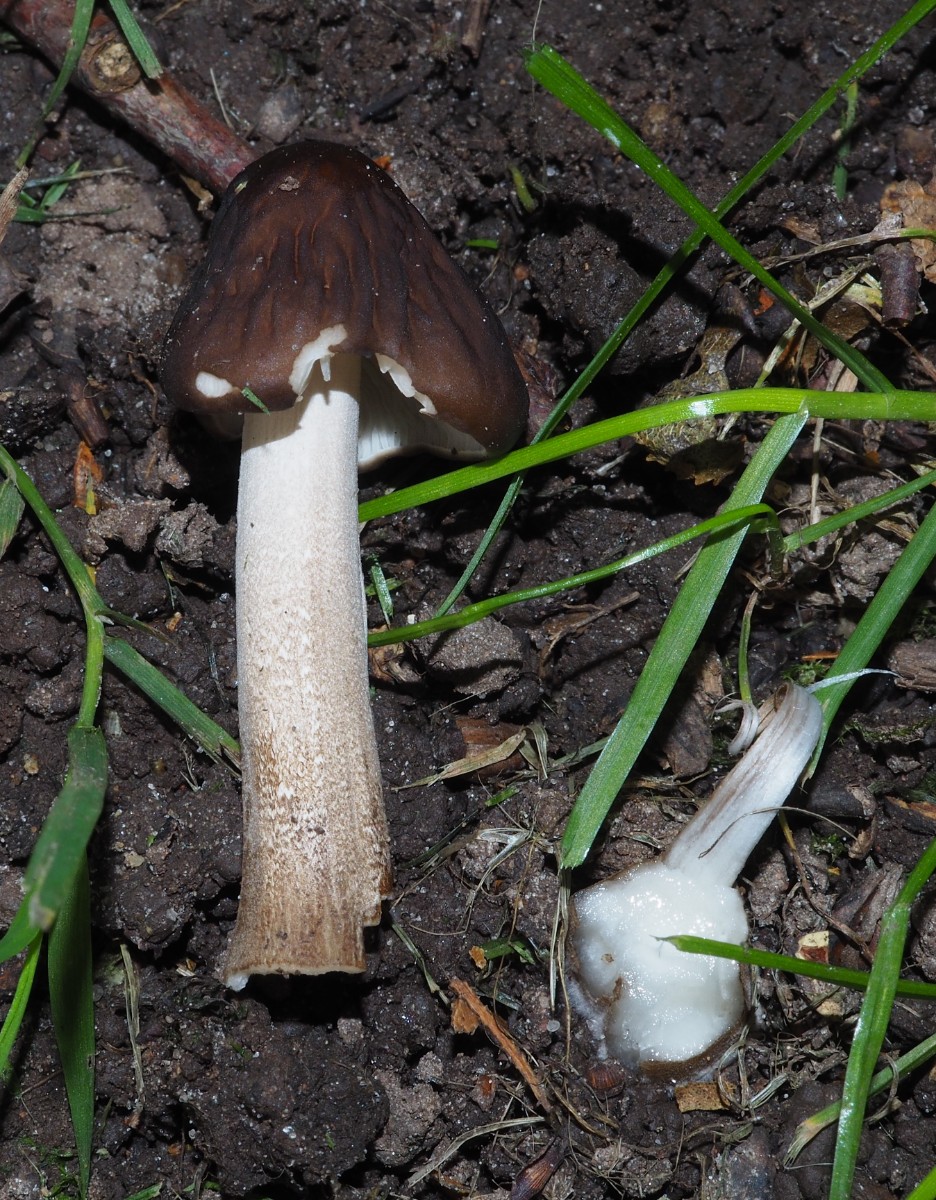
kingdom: Fungi
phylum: Basidiomycota
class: Agaricomycetes
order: Agaricales
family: Pluteaceae
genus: Pluteus
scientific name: Pluteus
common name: pudret skærmhat
